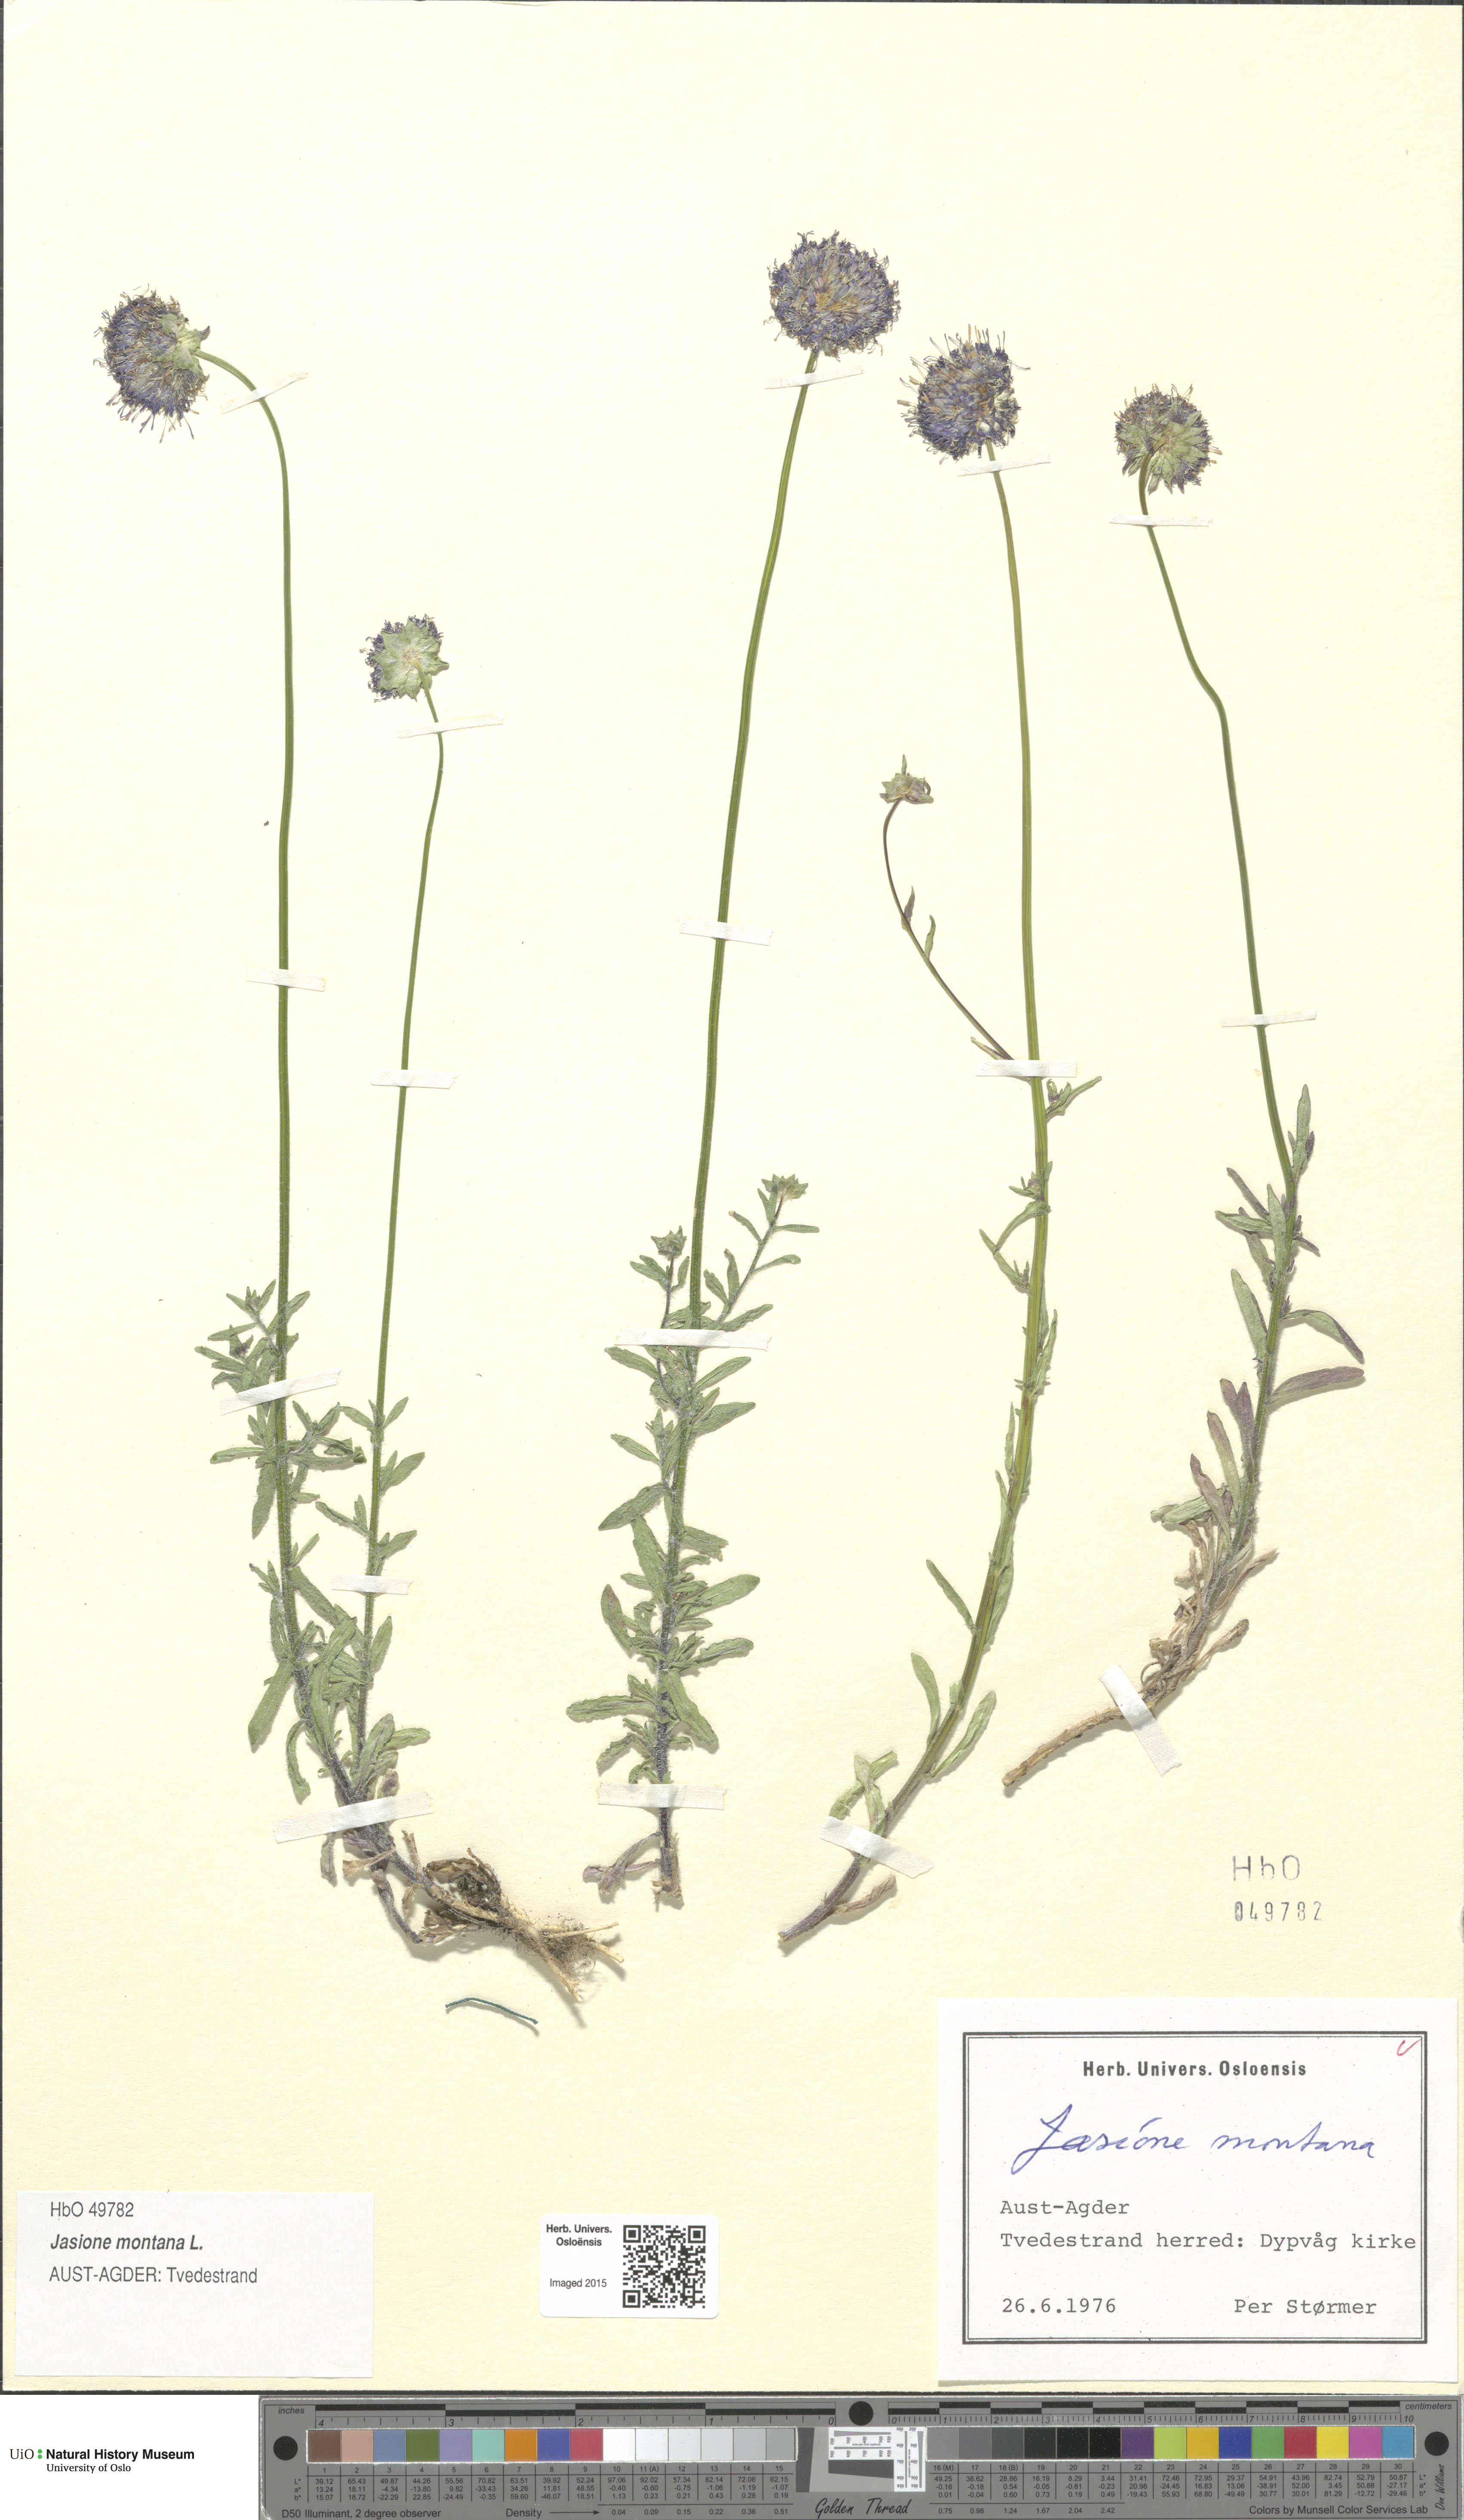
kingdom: Plantae
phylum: Tracheophyta
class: Magnoliopsida
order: Asterales
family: Campanulaceae
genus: Jasione
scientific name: Jasione montana
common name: Sheep's-bit
